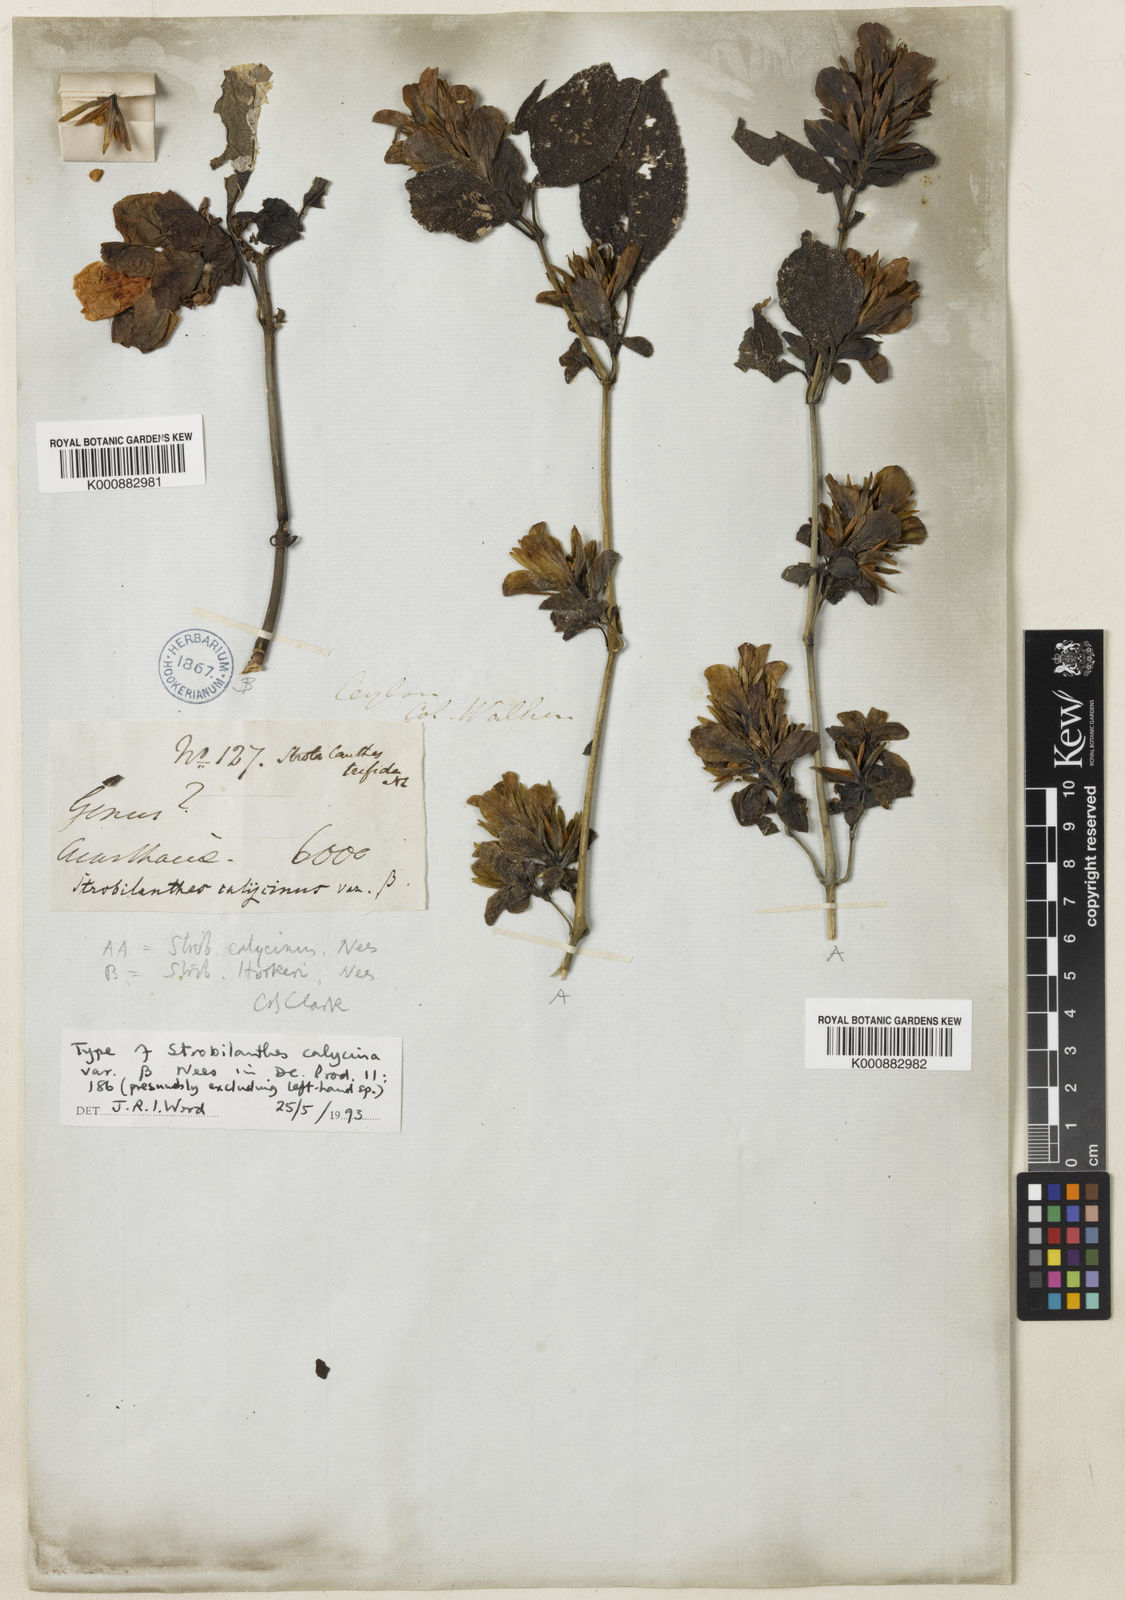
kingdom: Plantae
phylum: Tracheophyta
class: Magnoliopsida
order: Lamiales
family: Acanthaceae
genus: Strobilanthes
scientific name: Strobilanthes calycina
